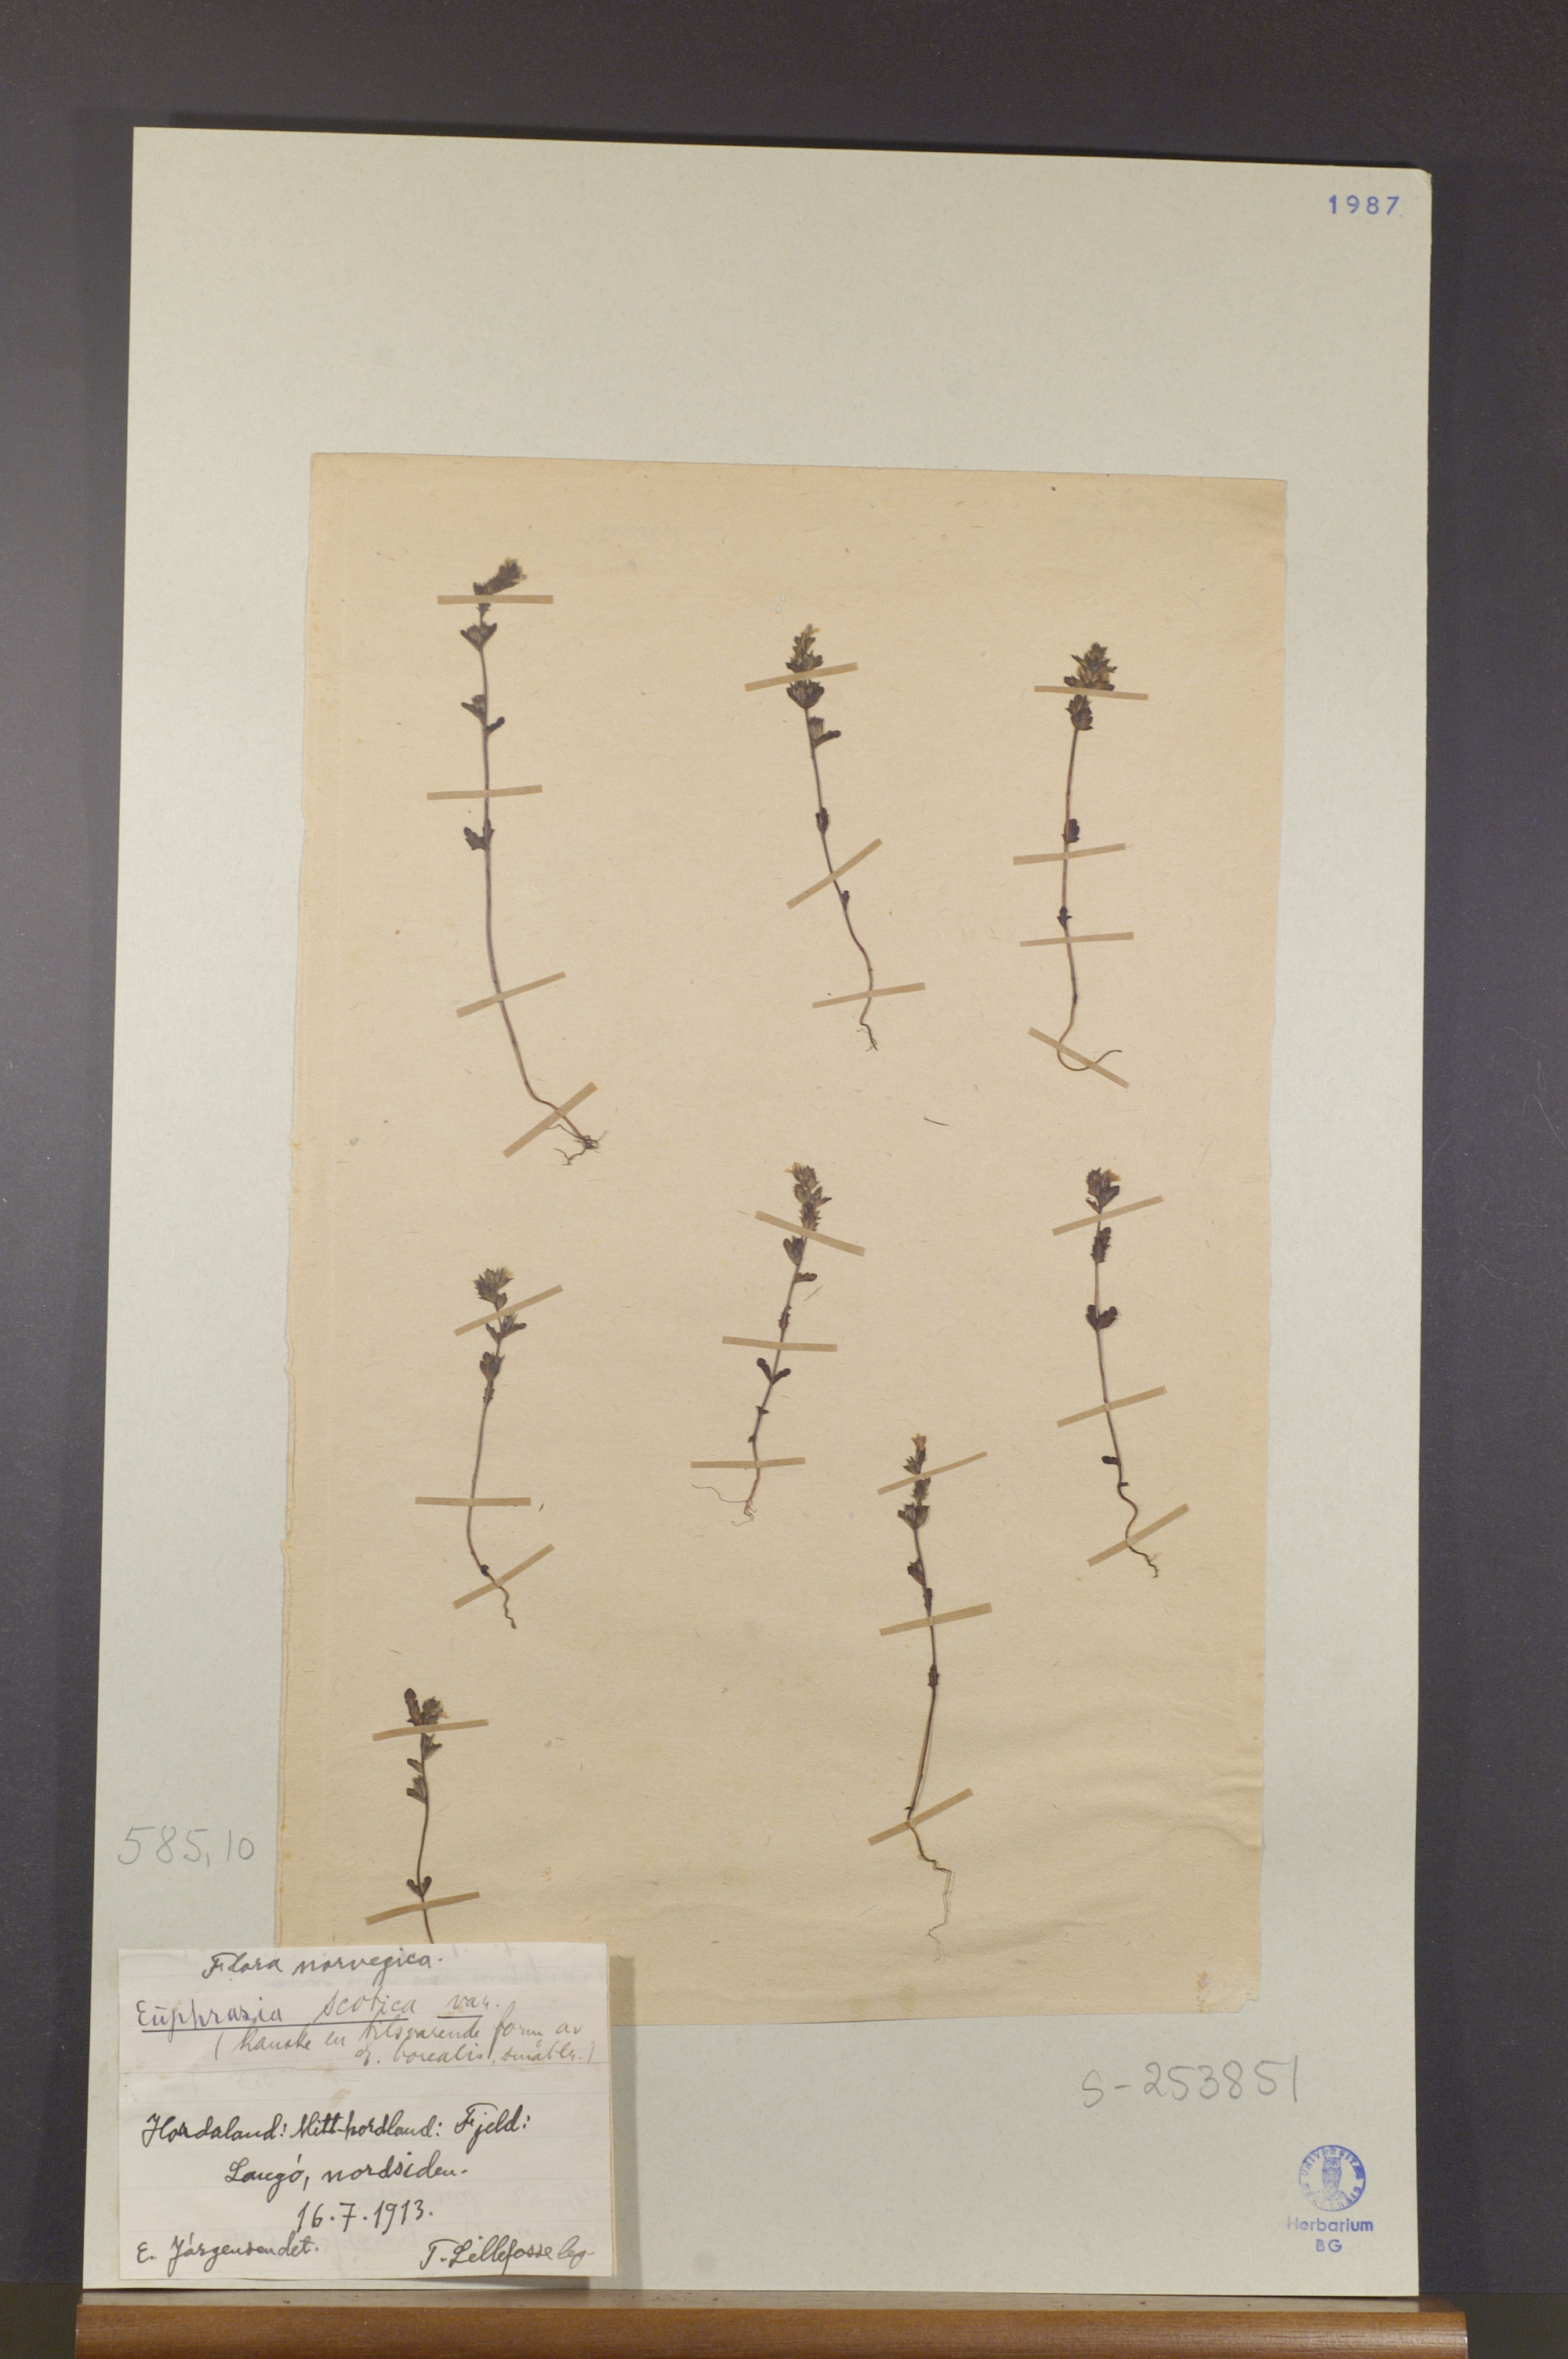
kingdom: Plantae
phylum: Tracheophyta
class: Magnoliopsida
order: Lamiales
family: Orobanchaceae
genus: Euphrasia
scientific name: Euphrasia scottica
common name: Slender scottish eyebright
